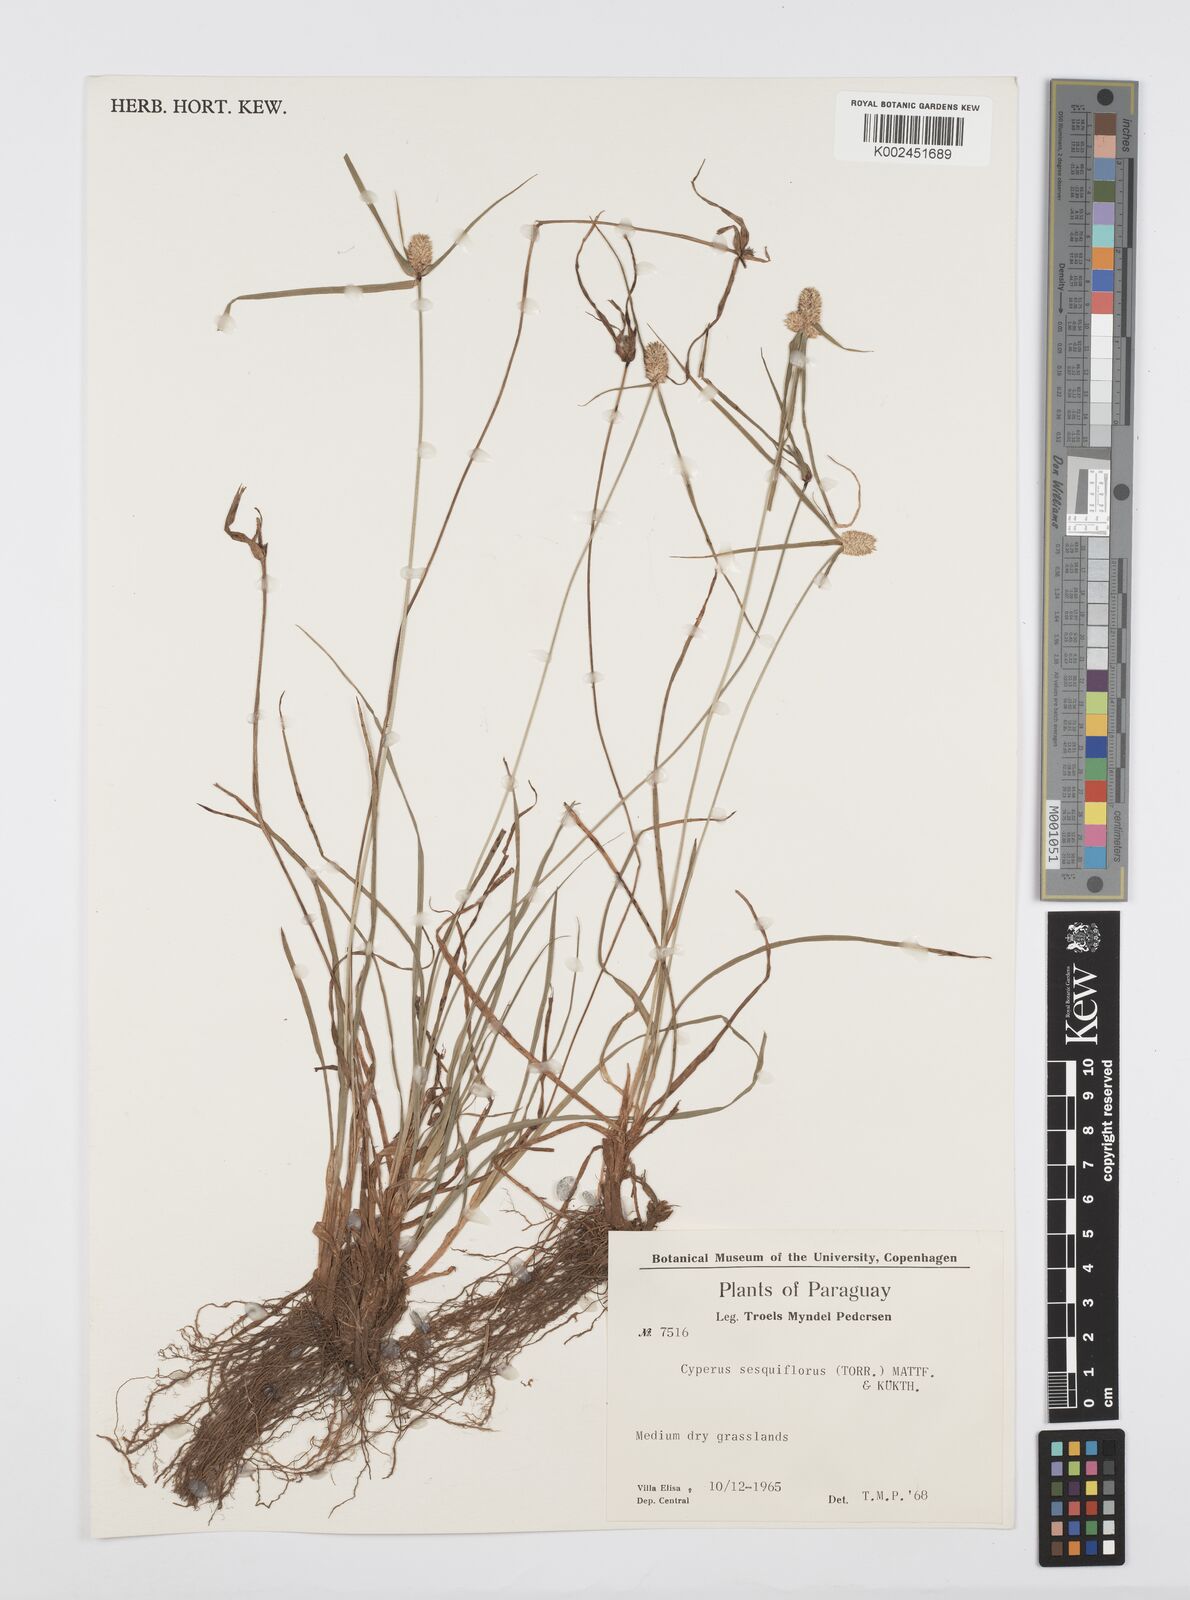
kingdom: Plantae
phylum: Tracheophyta
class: Liliopsida
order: Poales
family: Cyperaceae
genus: Cyperus
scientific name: Cyperus
